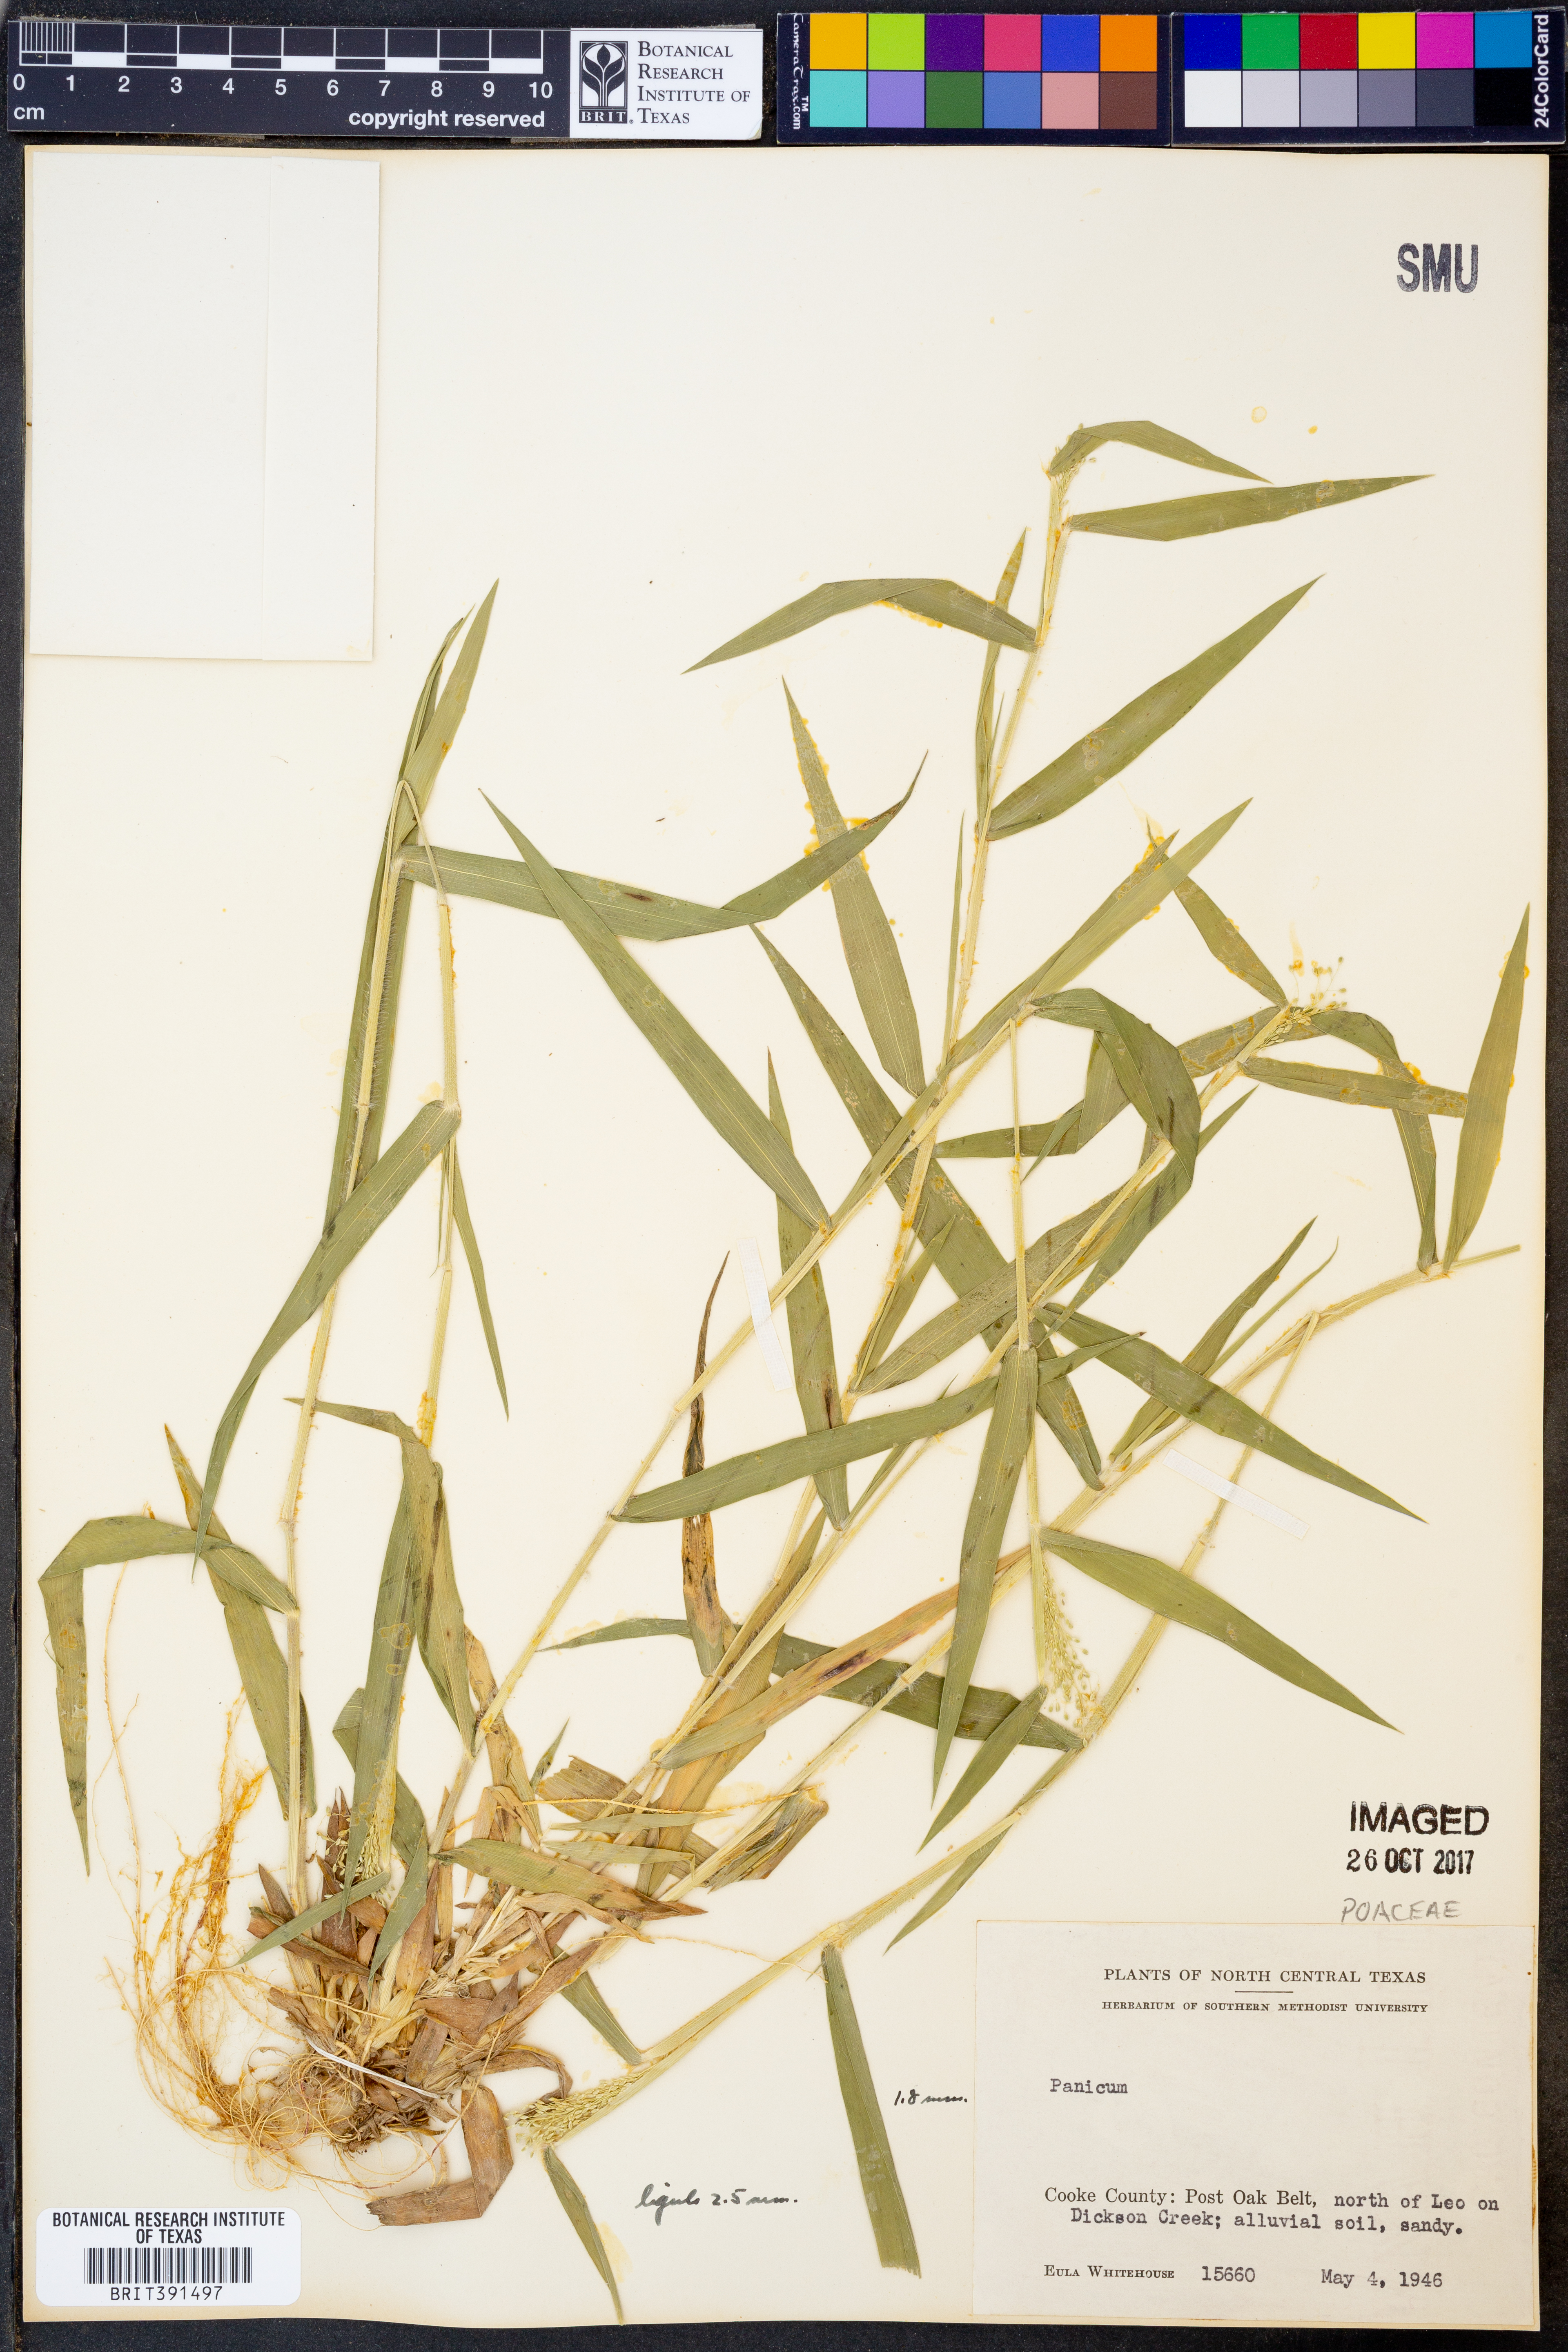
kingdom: Plantae
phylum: Tracheophyta
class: Liliopsida
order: Poales
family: Poaceae
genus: Panicum
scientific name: Panicum
